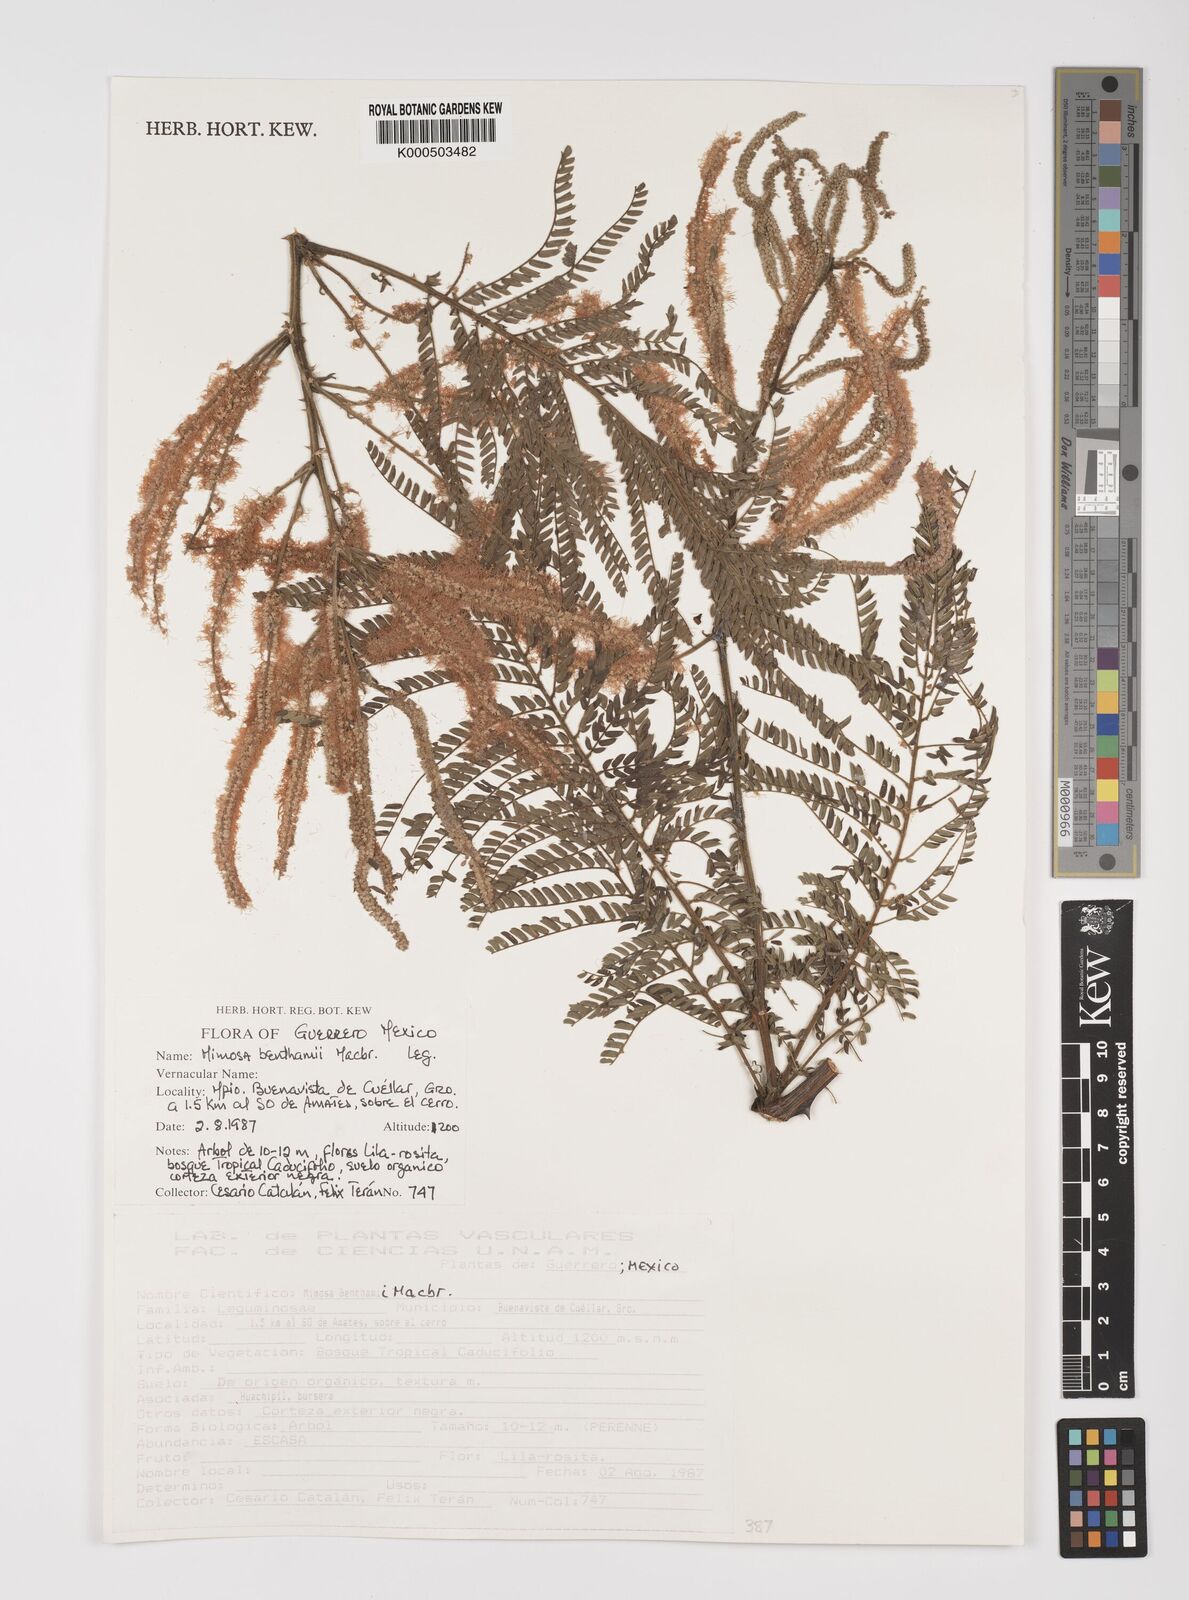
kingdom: Plantae
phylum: Tracheophyta
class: Magnoliopsida
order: Fabales
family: Fabaceae
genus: Mimosa
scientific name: Mimosa benthamii
